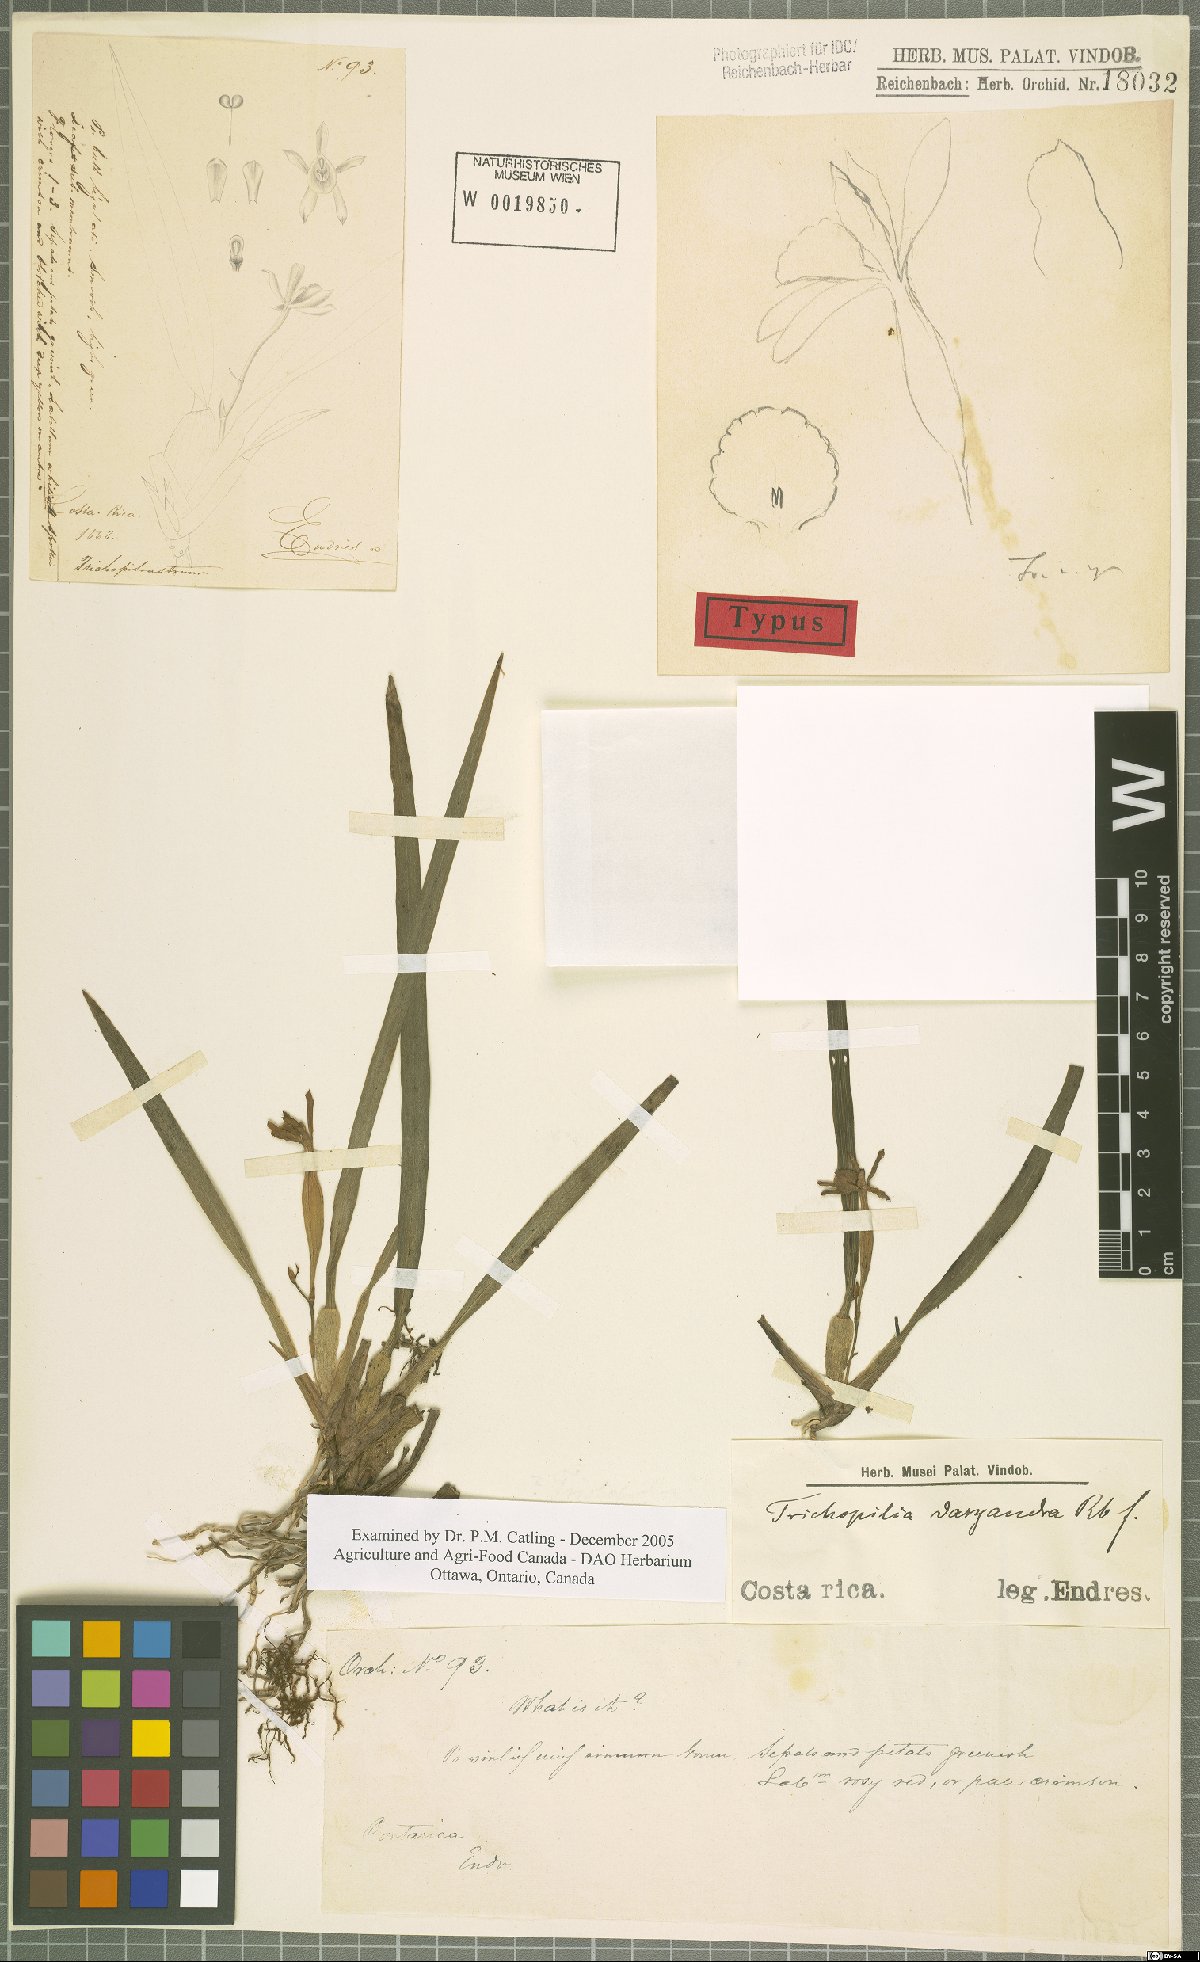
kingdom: Plantae
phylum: Tracheophyta
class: Liliopsida
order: Asparagales
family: Orchidaceae
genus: Cischweinfia
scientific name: Cischweinfia dasyandra
